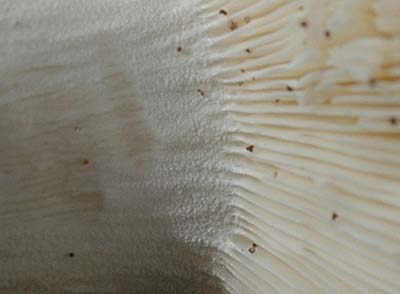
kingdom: Fungi
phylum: Basidiomycota
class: Agaricomycetes
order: Russulales
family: Russulaceae
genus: Russula
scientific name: Russula aurora
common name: rosa skørhat
